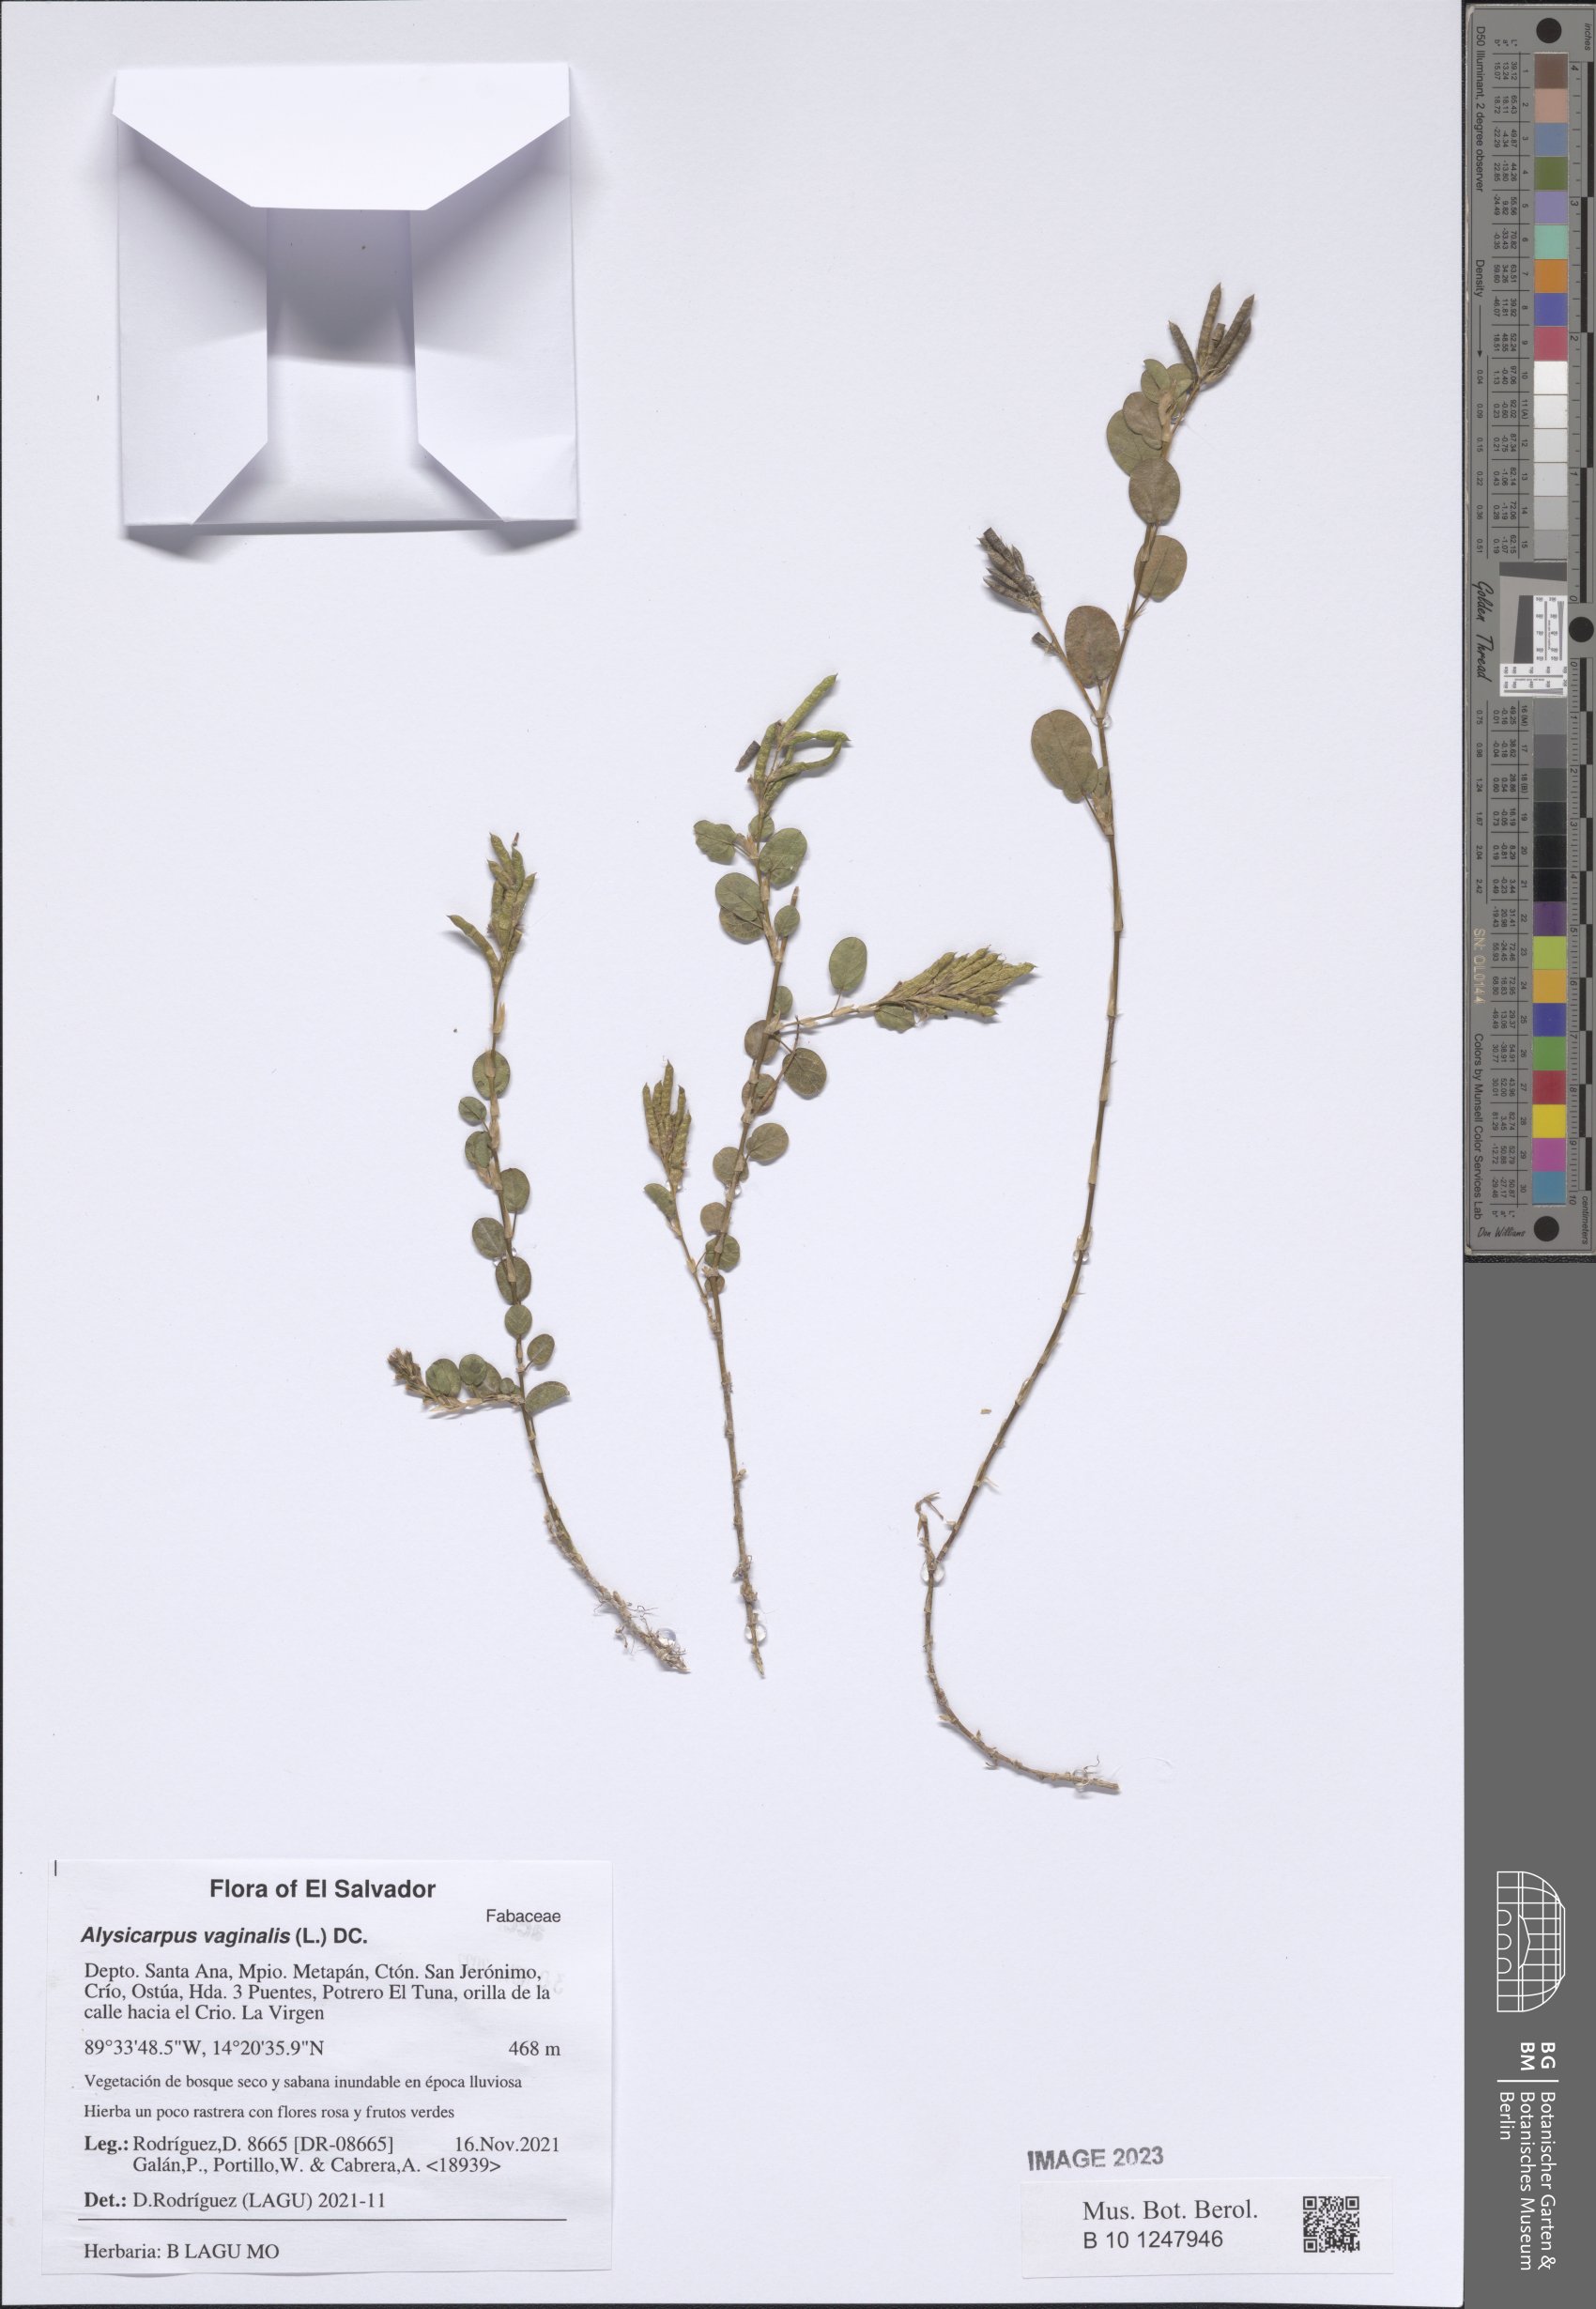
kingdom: Plantae
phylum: Tracheophyta
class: Magnoliopsida
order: Fabales
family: Fabaceae
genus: Alysicarpus
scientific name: Alysicarpus vaginalis
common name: White moneywort
